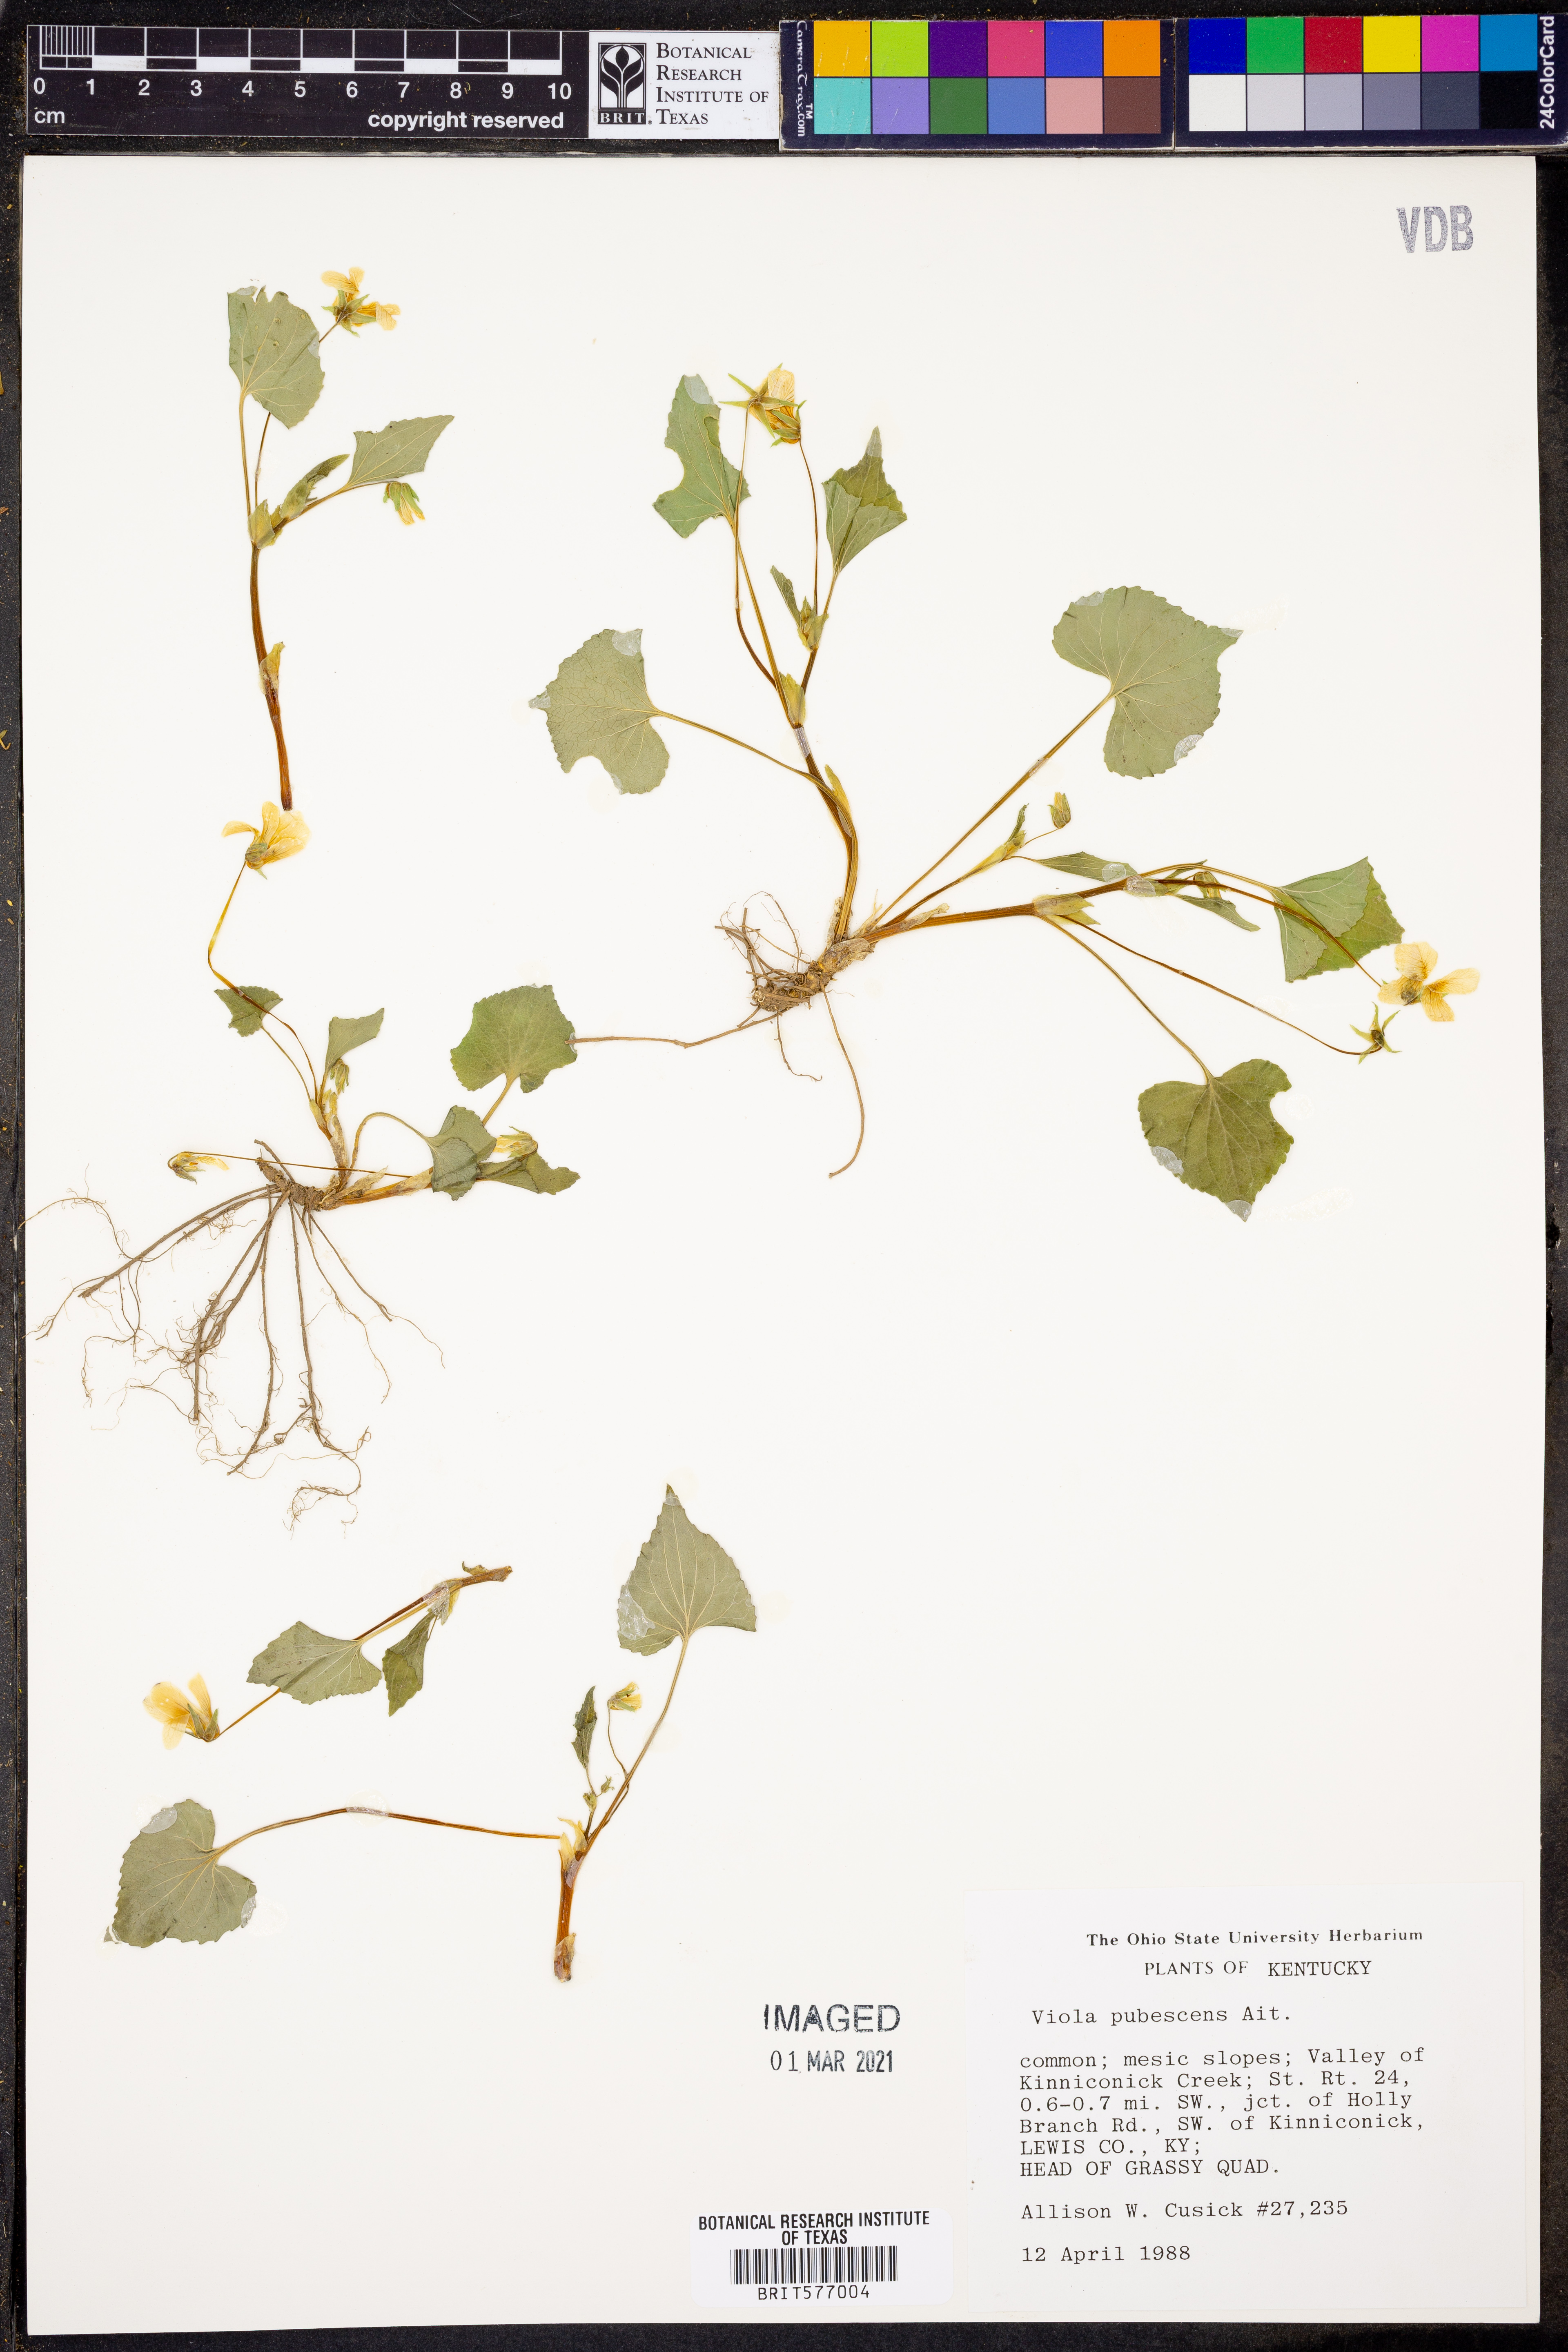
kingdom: Plantae
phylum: Tracheophyta
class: Magnoliopsida
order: Malpighiales
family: Violaceae
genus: Viola
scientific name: Viola pubescens
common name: Yellow forest violet
